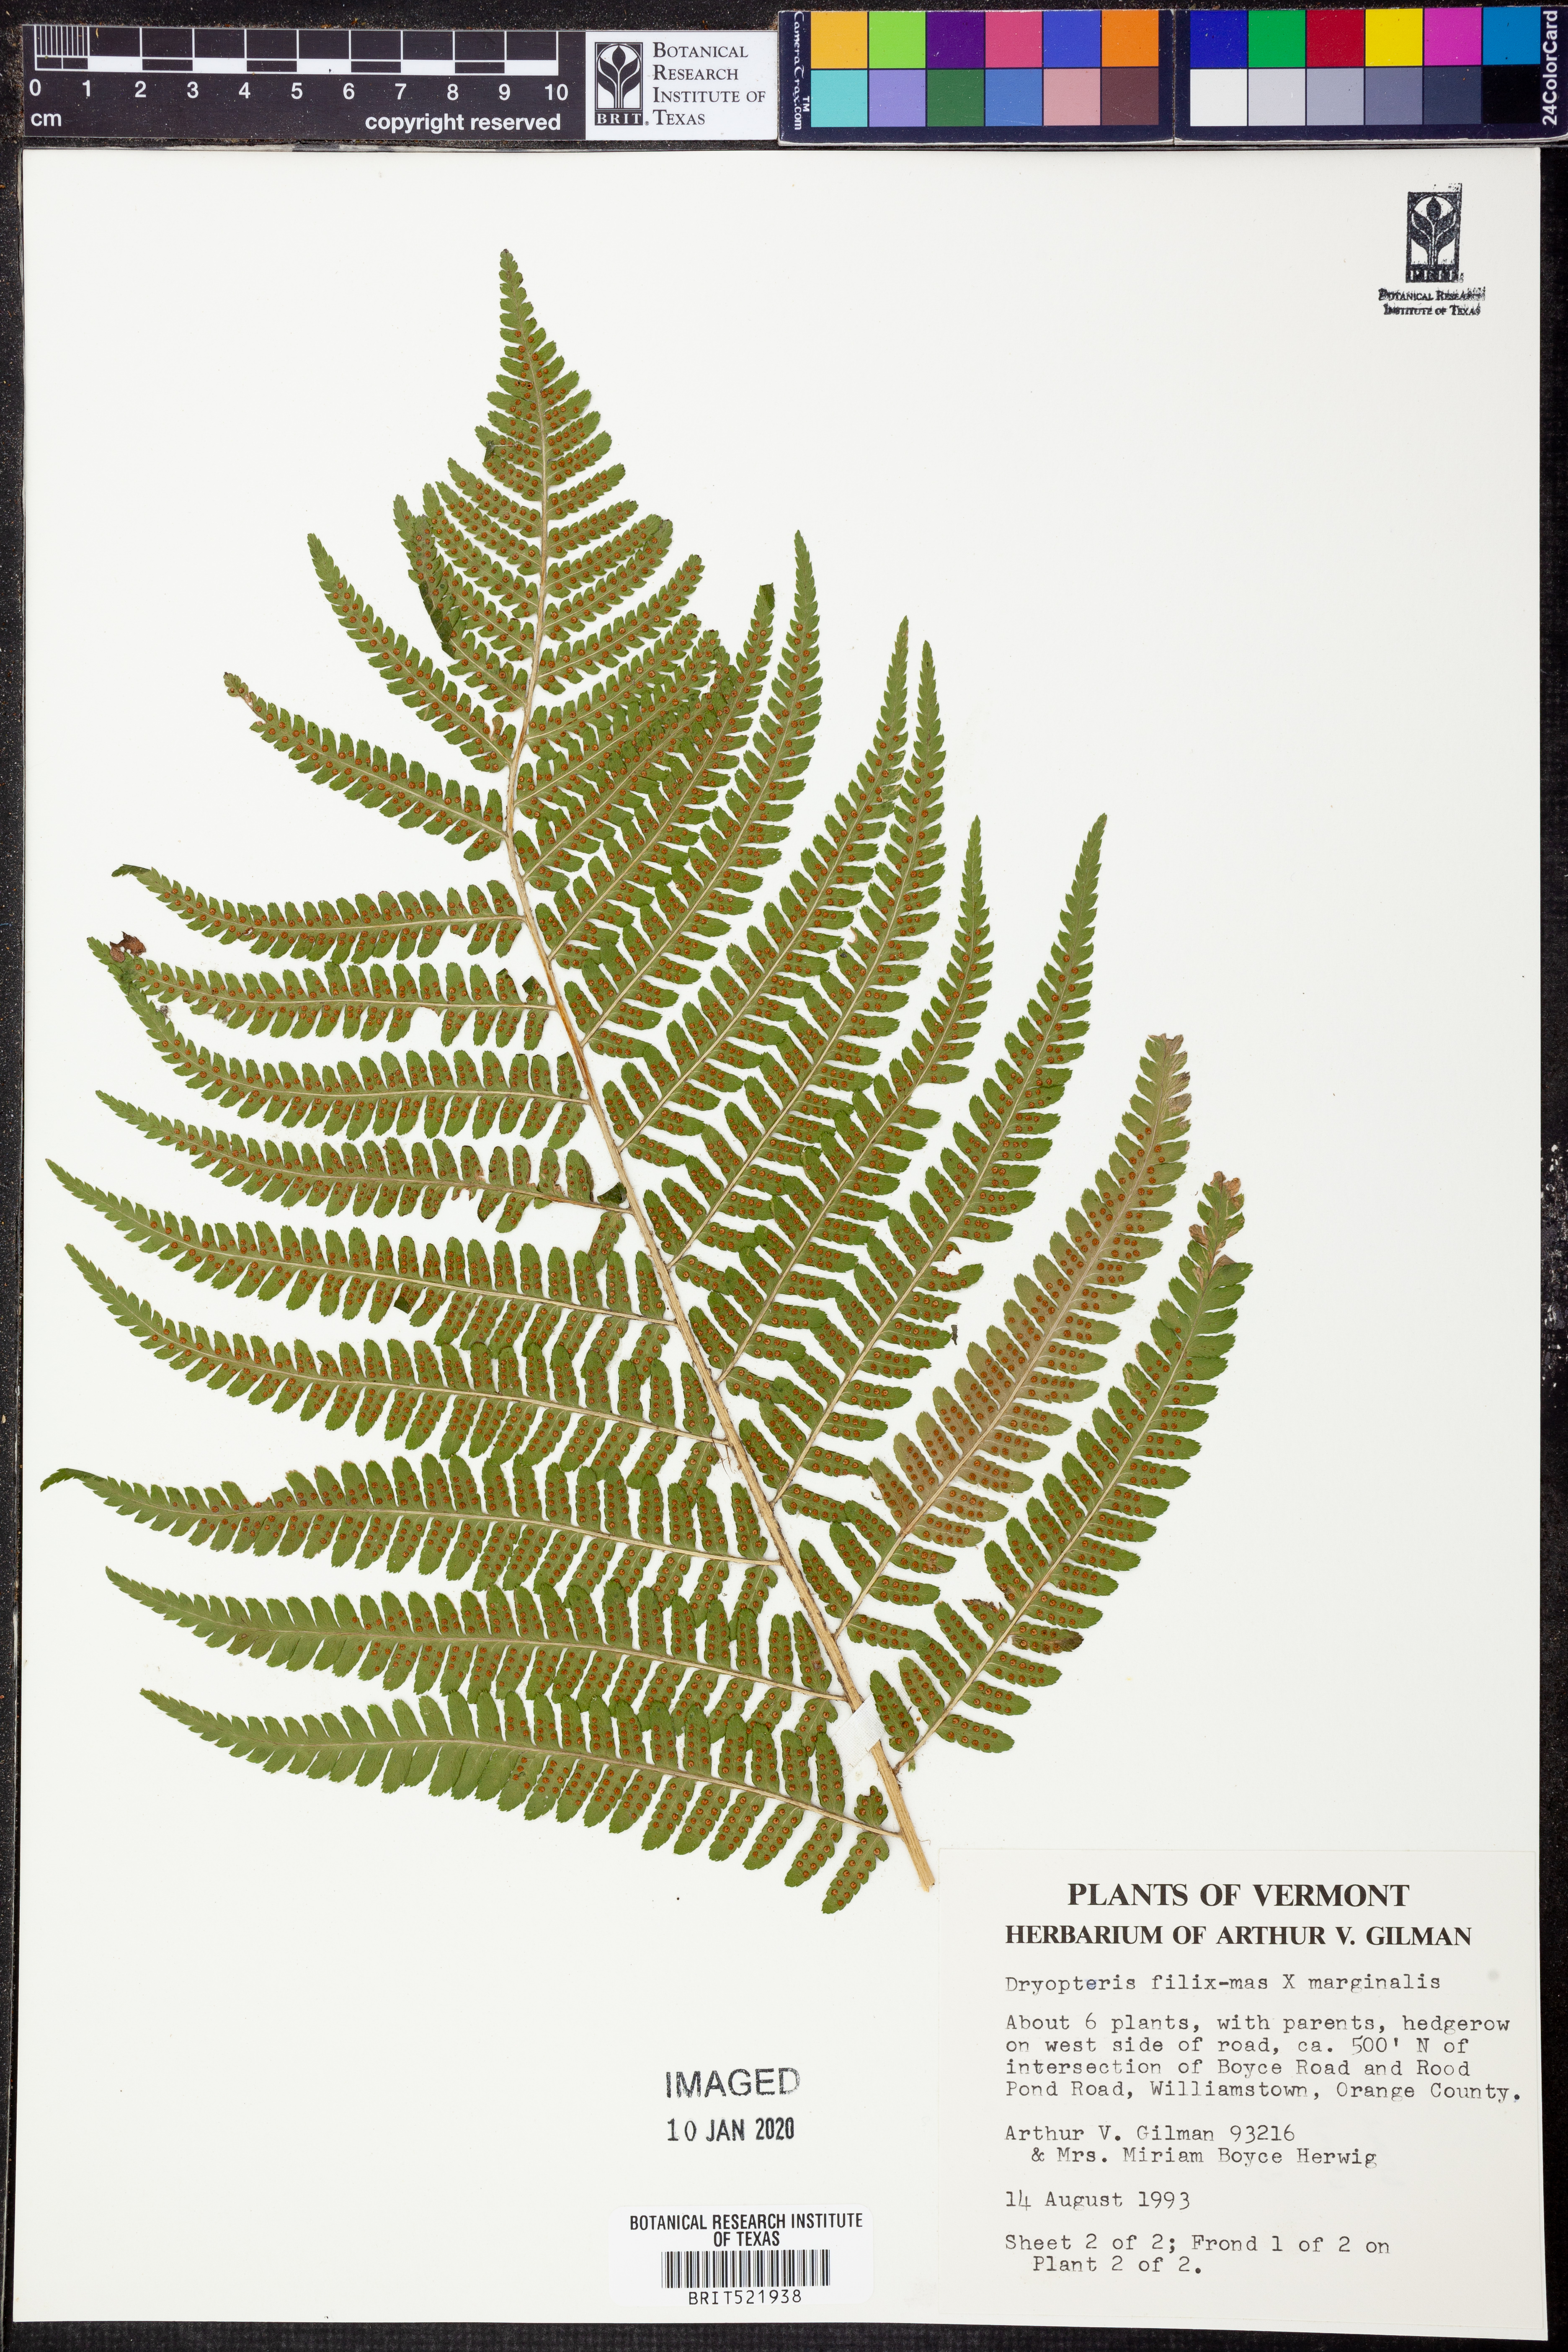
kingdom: Plantae
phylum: Tracheophyta
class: Polypodiopsida
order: Polypodiales
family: Dryopteridaceae
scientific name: Dryopteridaceae
